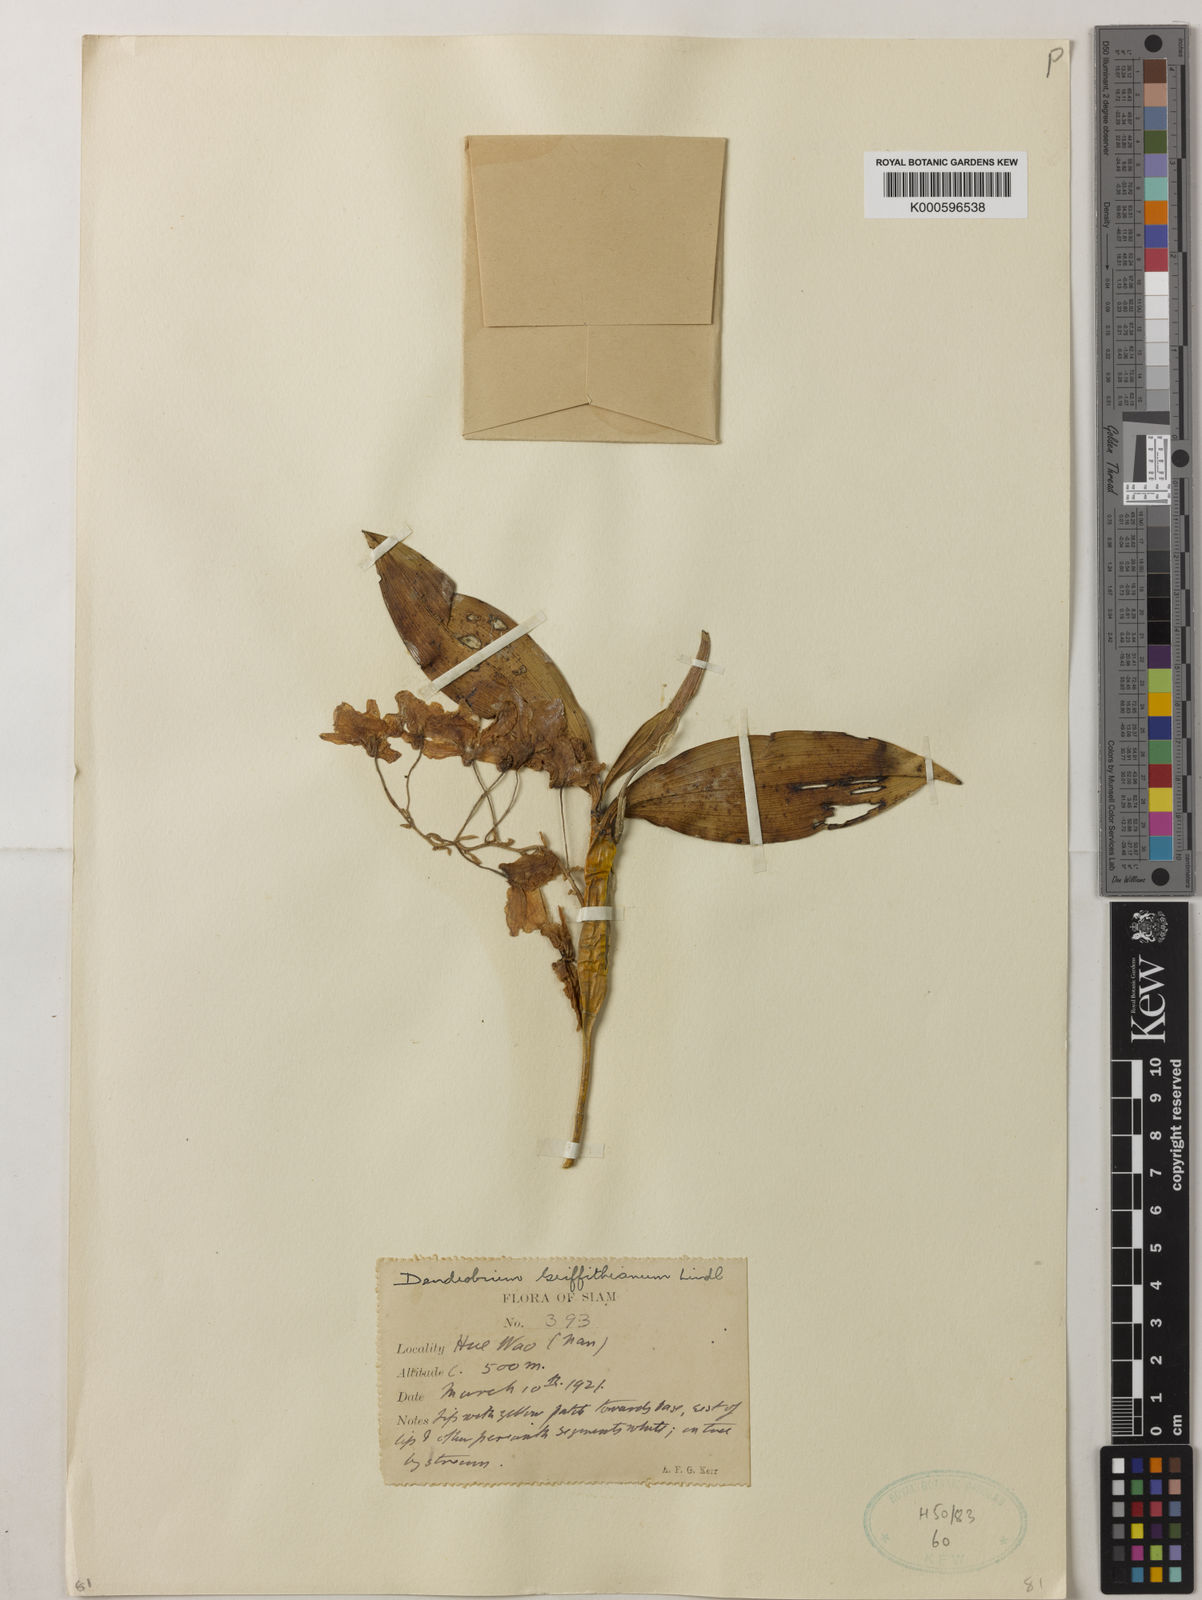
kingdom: Plantae
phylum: Tracheophyta
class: Liliopsida
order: Asparagales
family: Orchidaceae
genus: Dendrobium
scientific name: Dendrobium griffithianum
